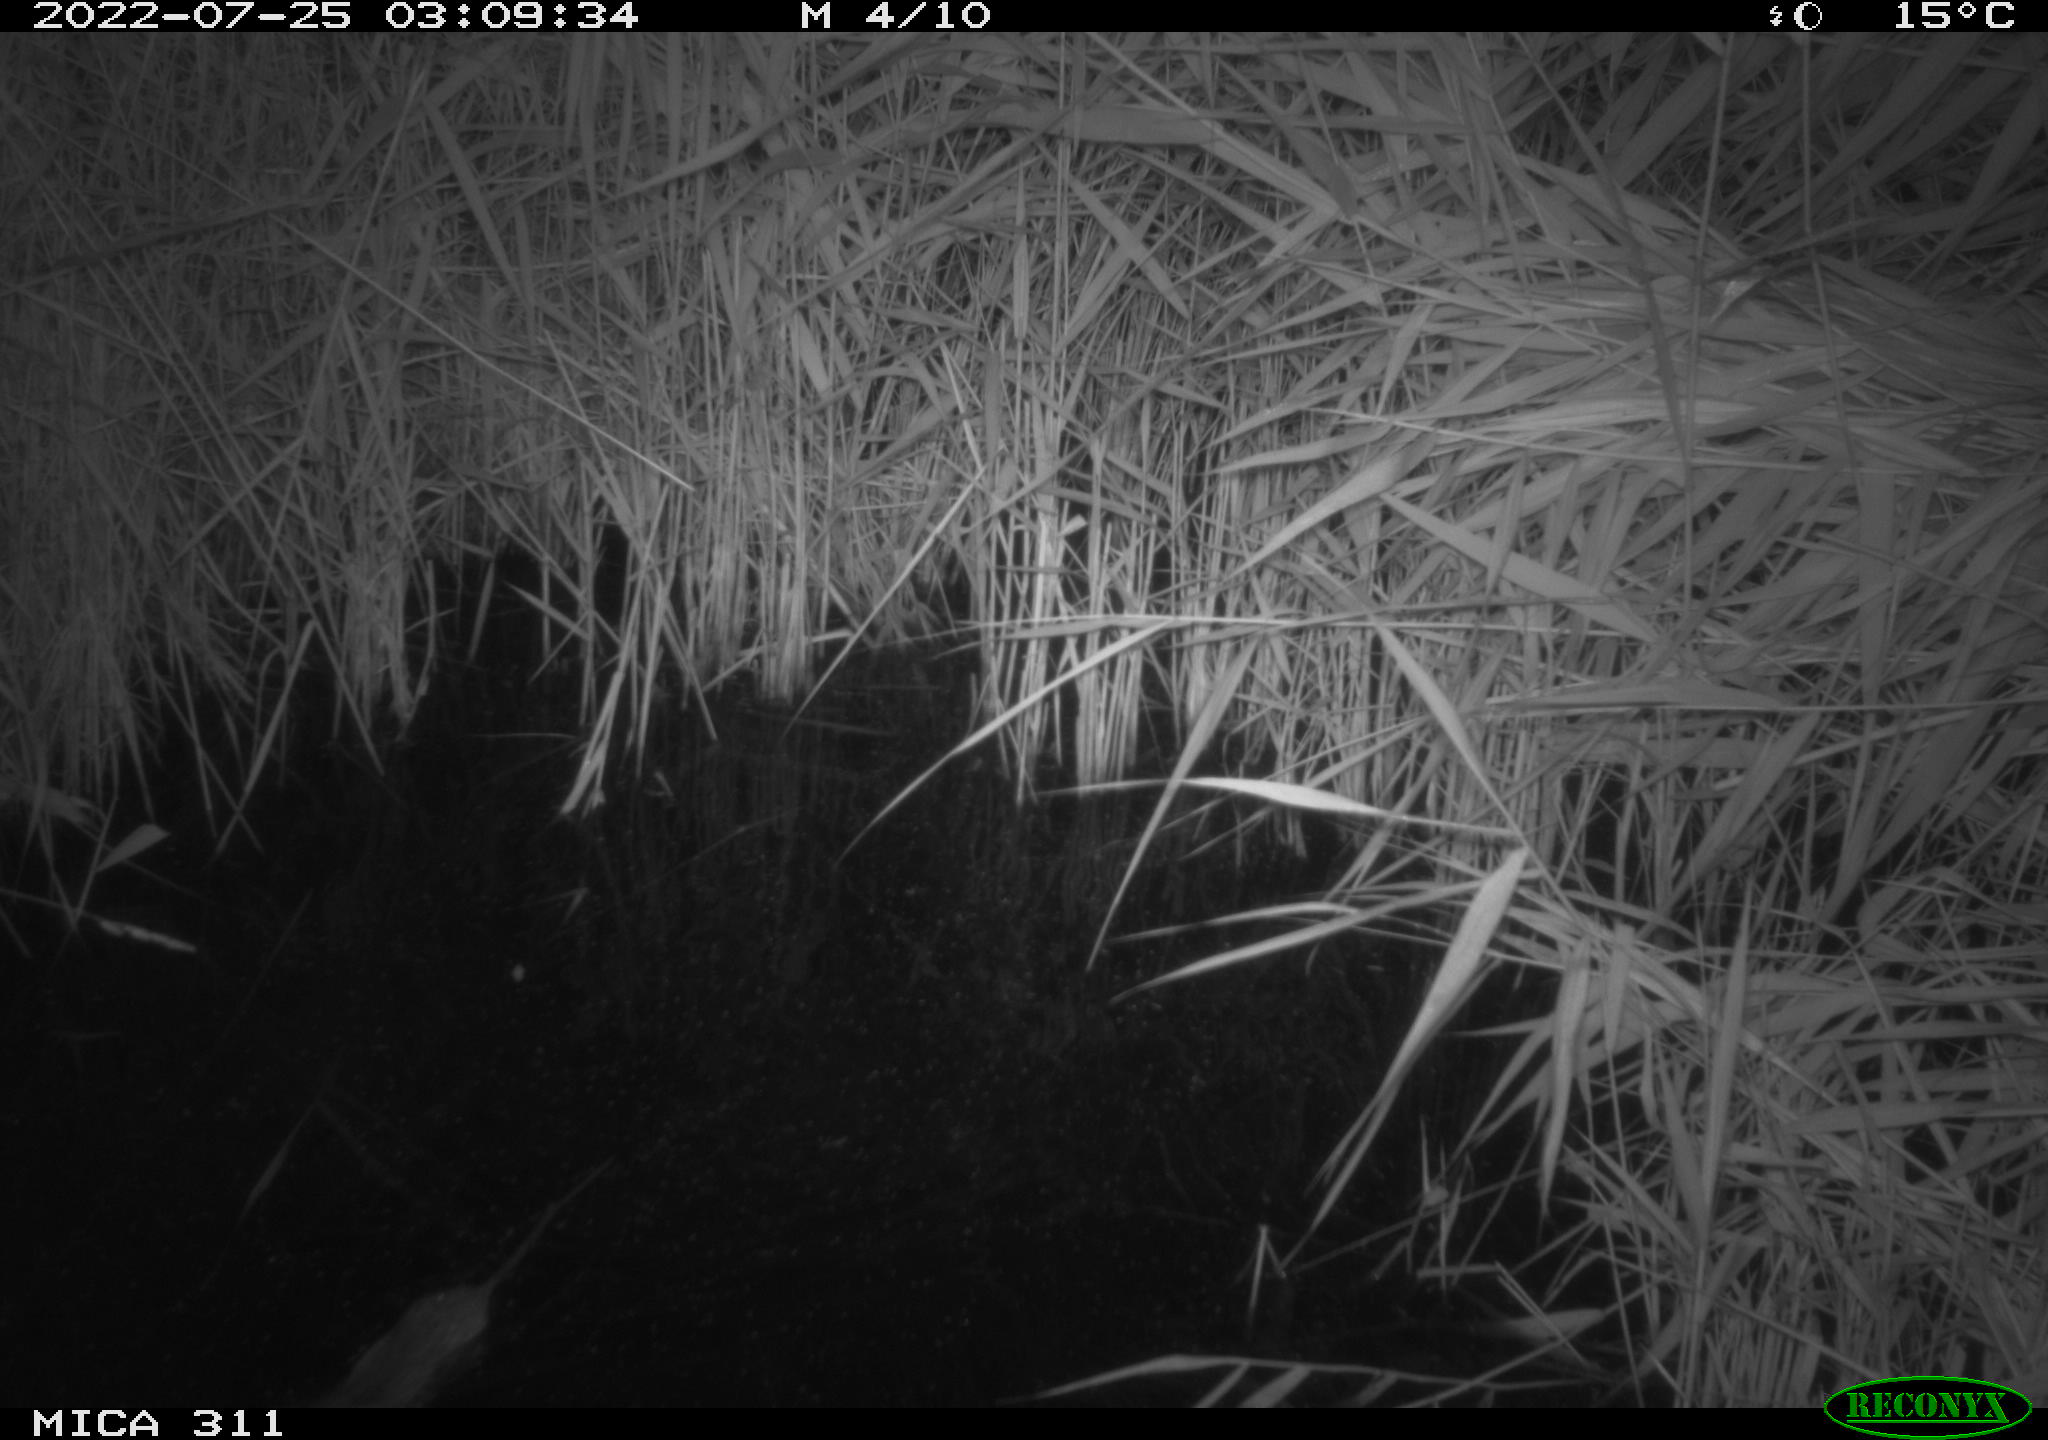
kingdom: Animalia
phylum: Chordata
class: Mammalia
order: Rodentia
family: Muridae
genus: Rattus
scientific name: Rattus norvegicus
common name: Brown rat
